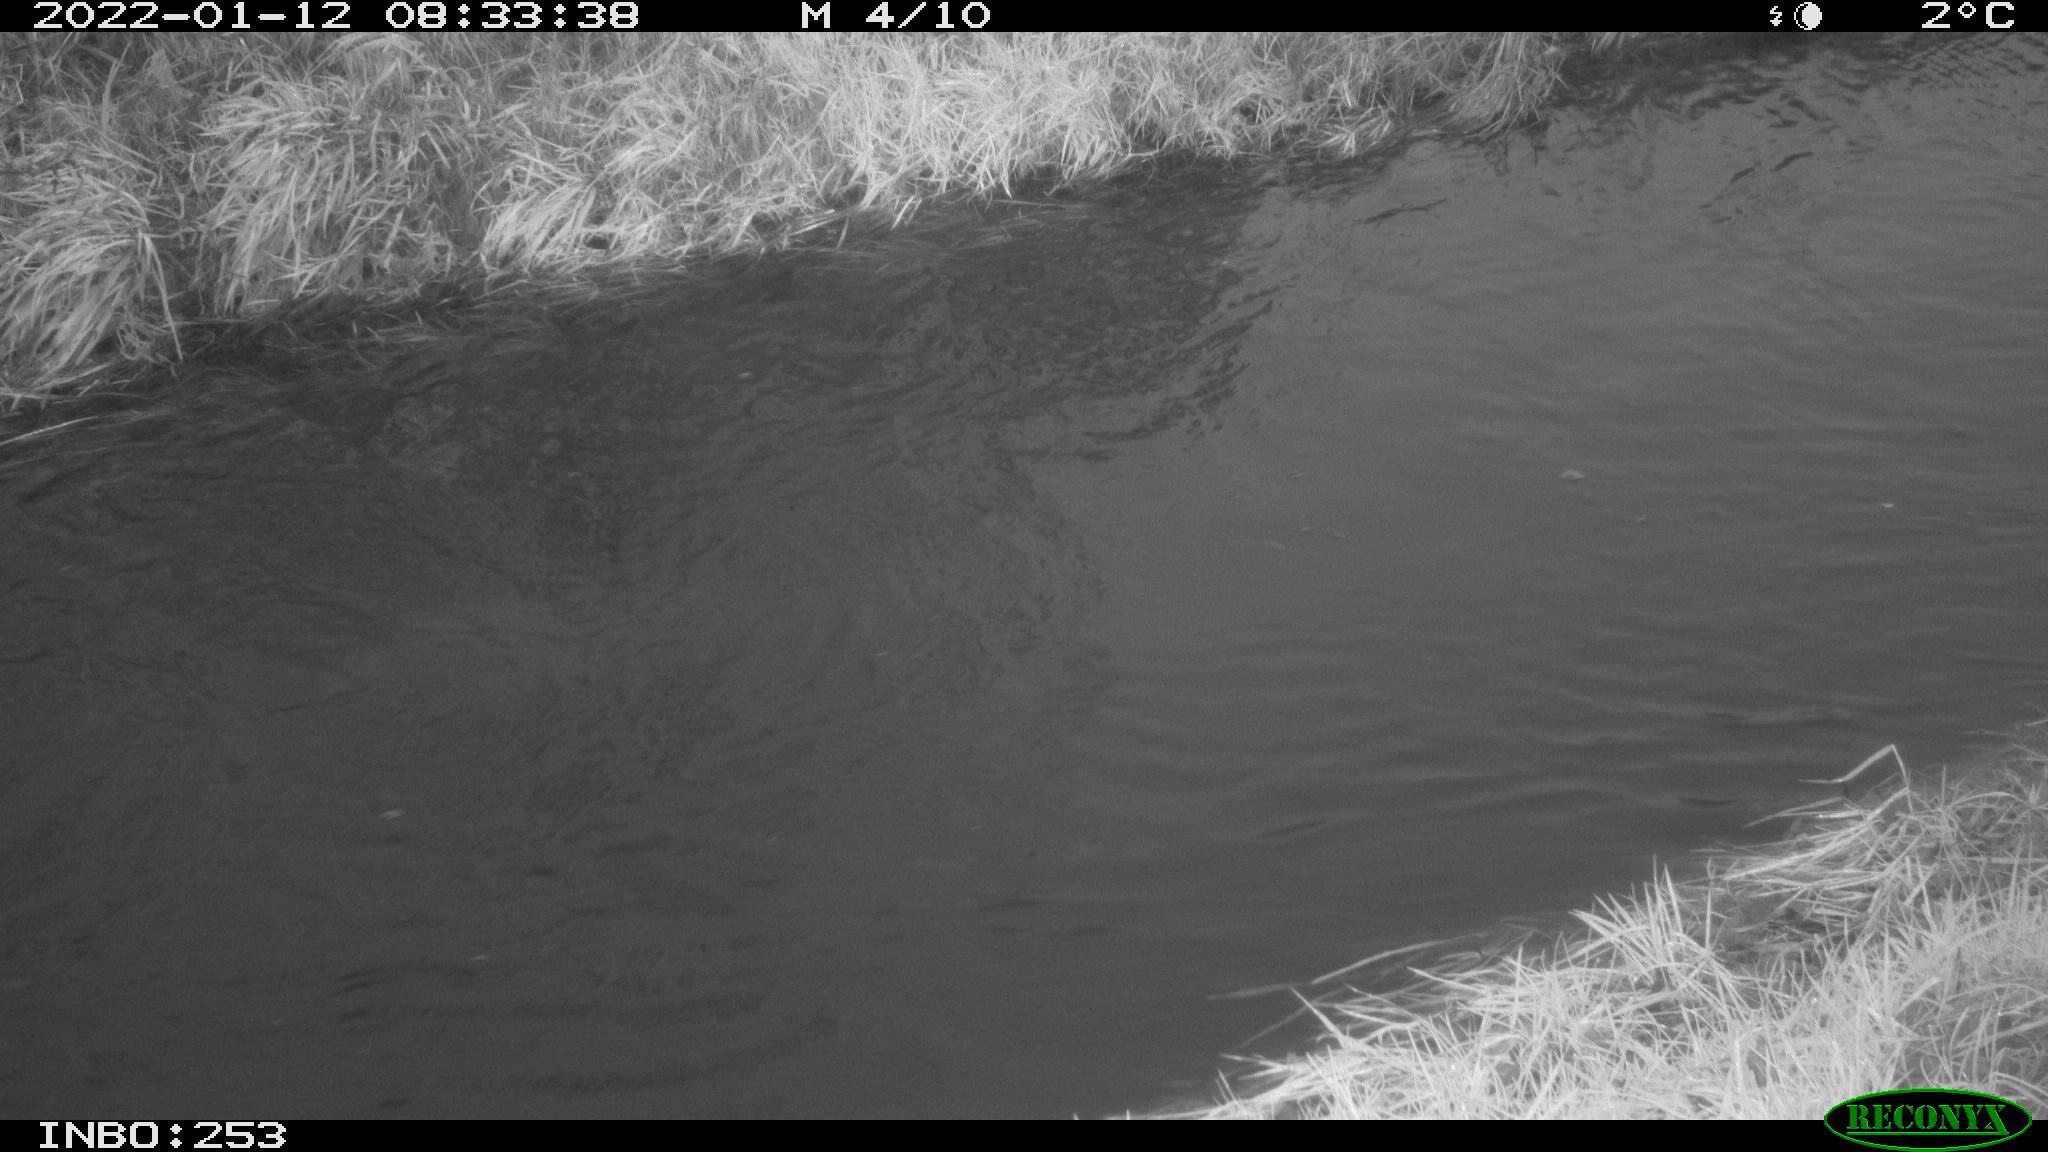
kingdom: Animalia
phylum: Chordata
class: Aves
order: Anseriformes
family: Anatidae
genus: Anas
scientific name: Anas platyrhynchos
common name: Mallard
